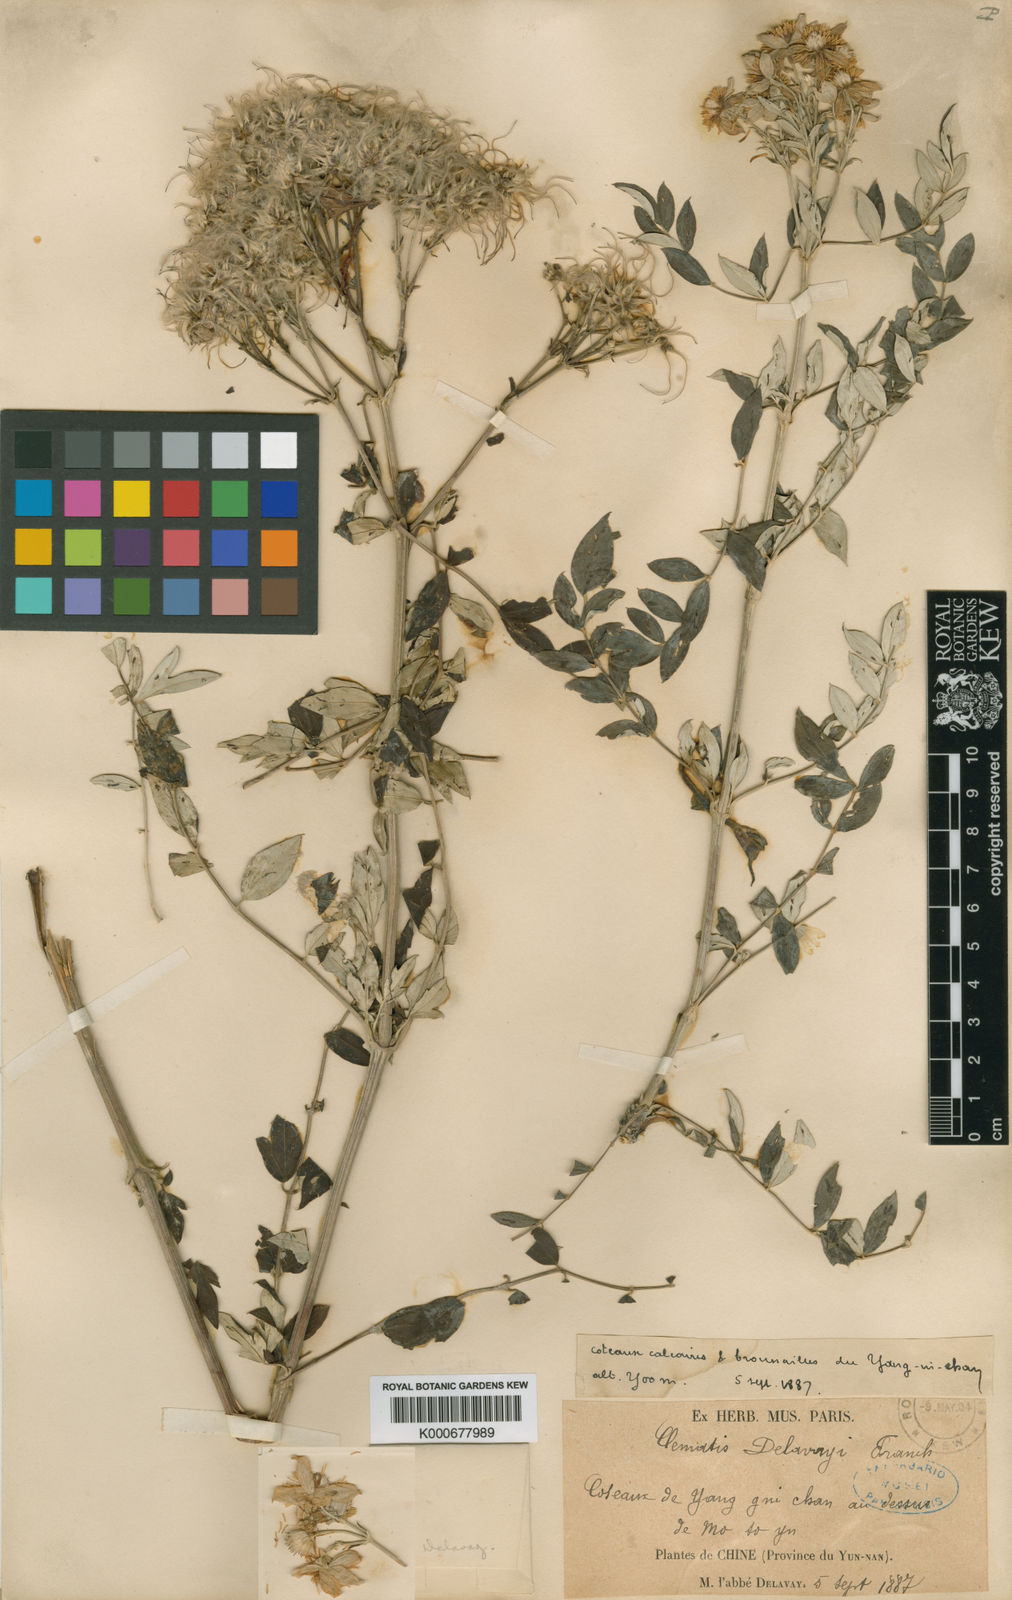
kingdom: Plantae
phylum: Tracheophyta
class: Magnoliopsida
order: Ranunculales
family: Ranunculaceae
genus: Clematis
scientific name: Clematis delavayi
